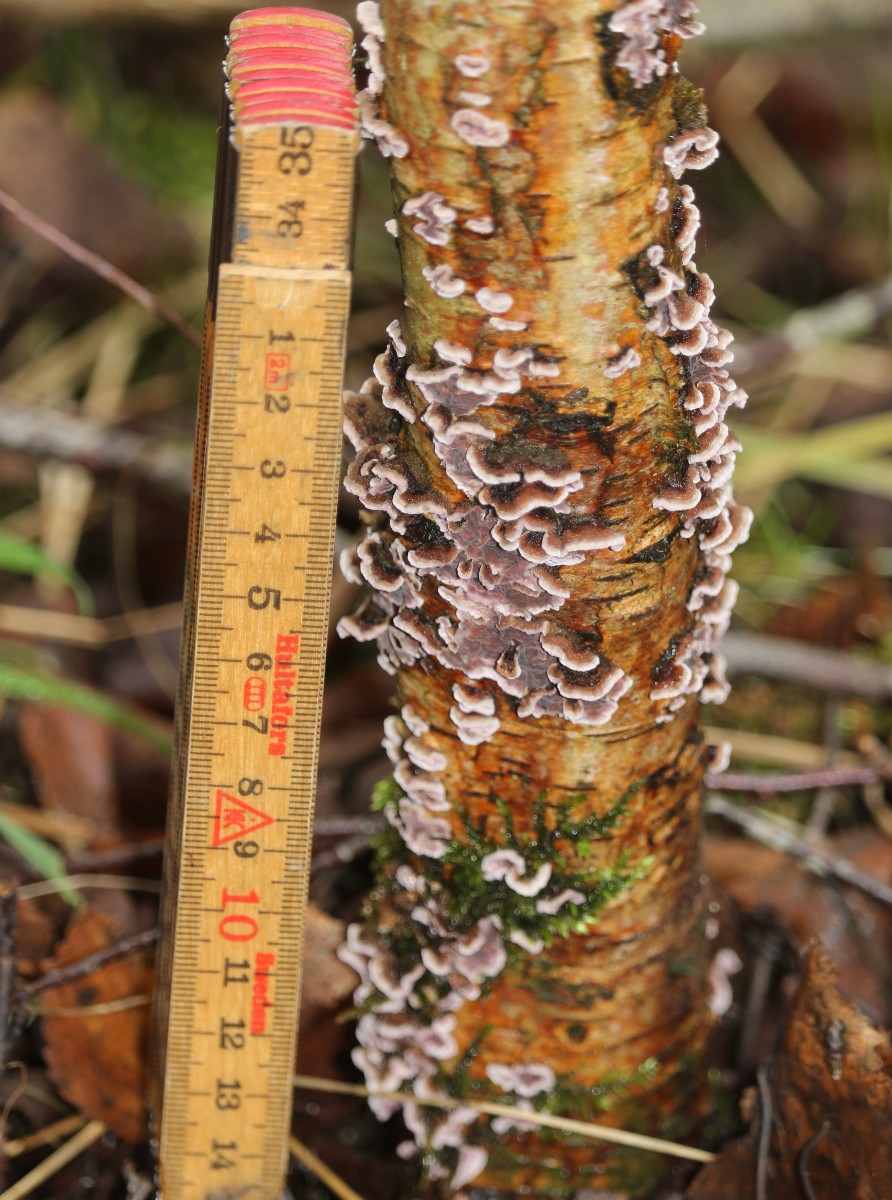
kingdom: Fungi
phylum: Basidiomycota
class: Agaricomycetes
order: Agaricales
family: Cyphellaceae
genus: Chondrostereum
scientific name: Chondrostereum purpureum
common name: purpurlædersvamp
